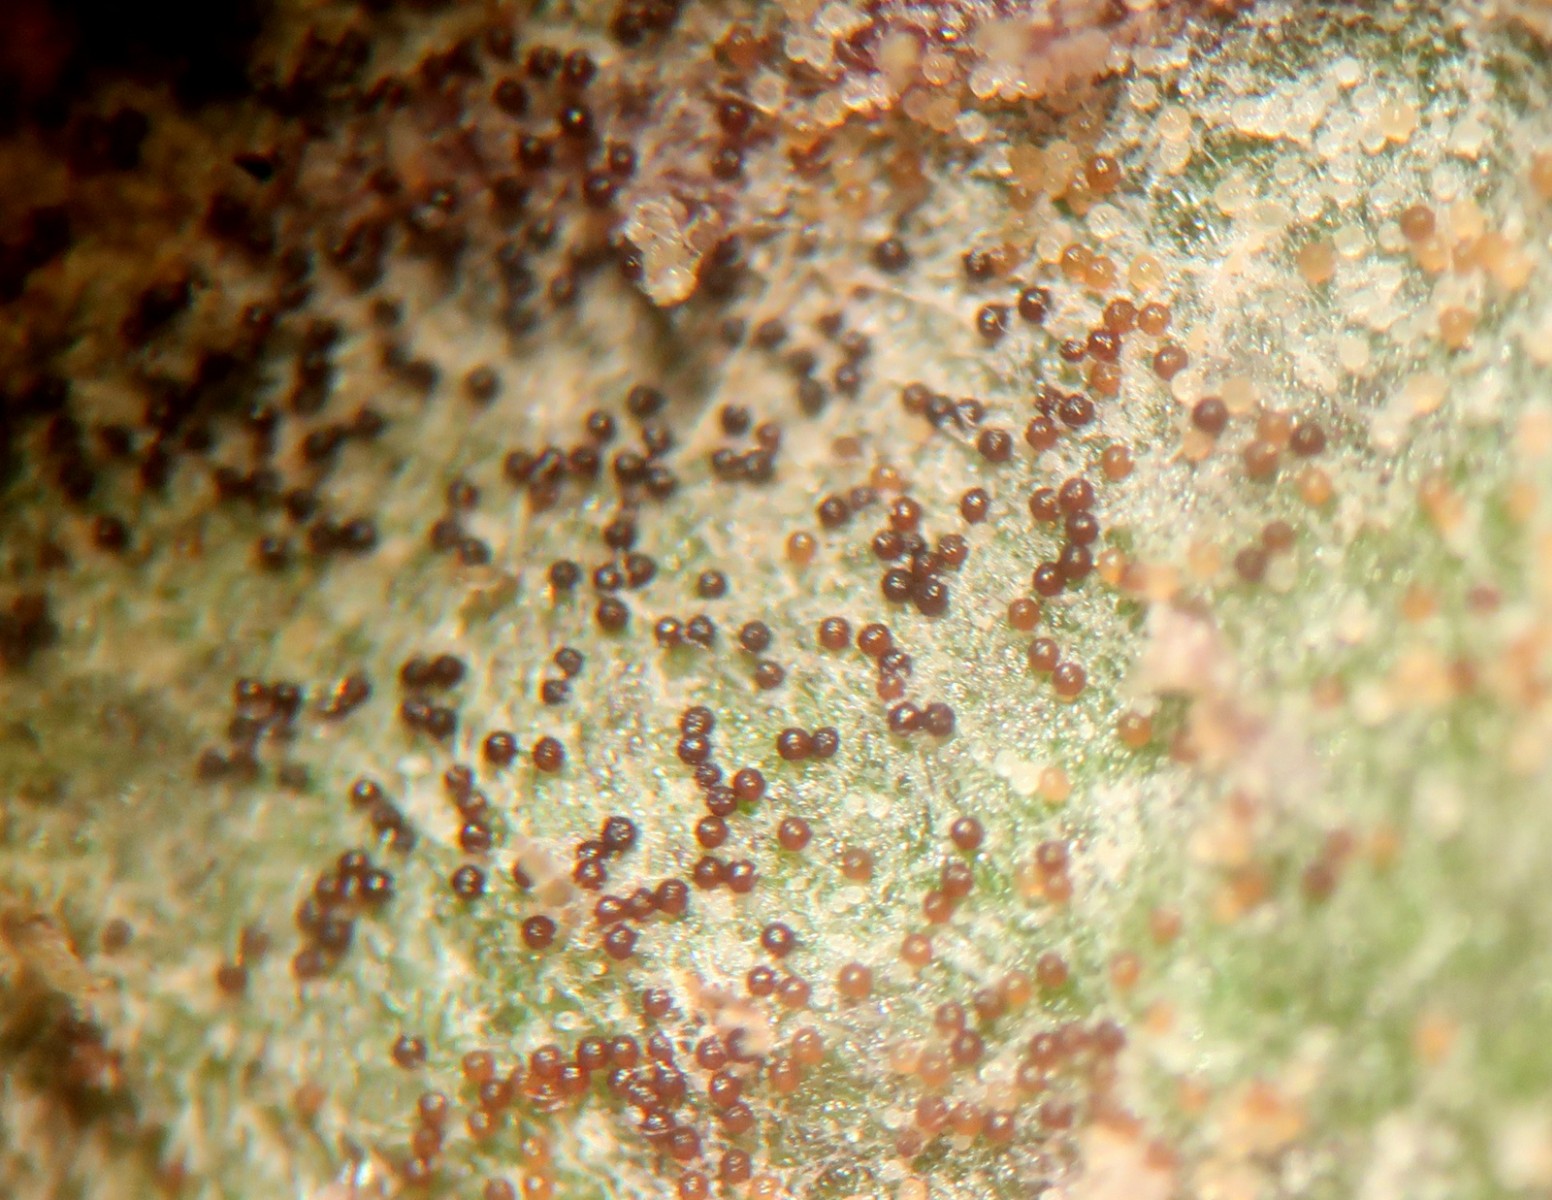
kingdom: Fungi
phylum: Ascomycota
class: Leotiomycetes
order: Helotiales
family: Erysiphaceae
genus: Podosphaera
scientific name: Podosphaera erigerontis-canadensis
